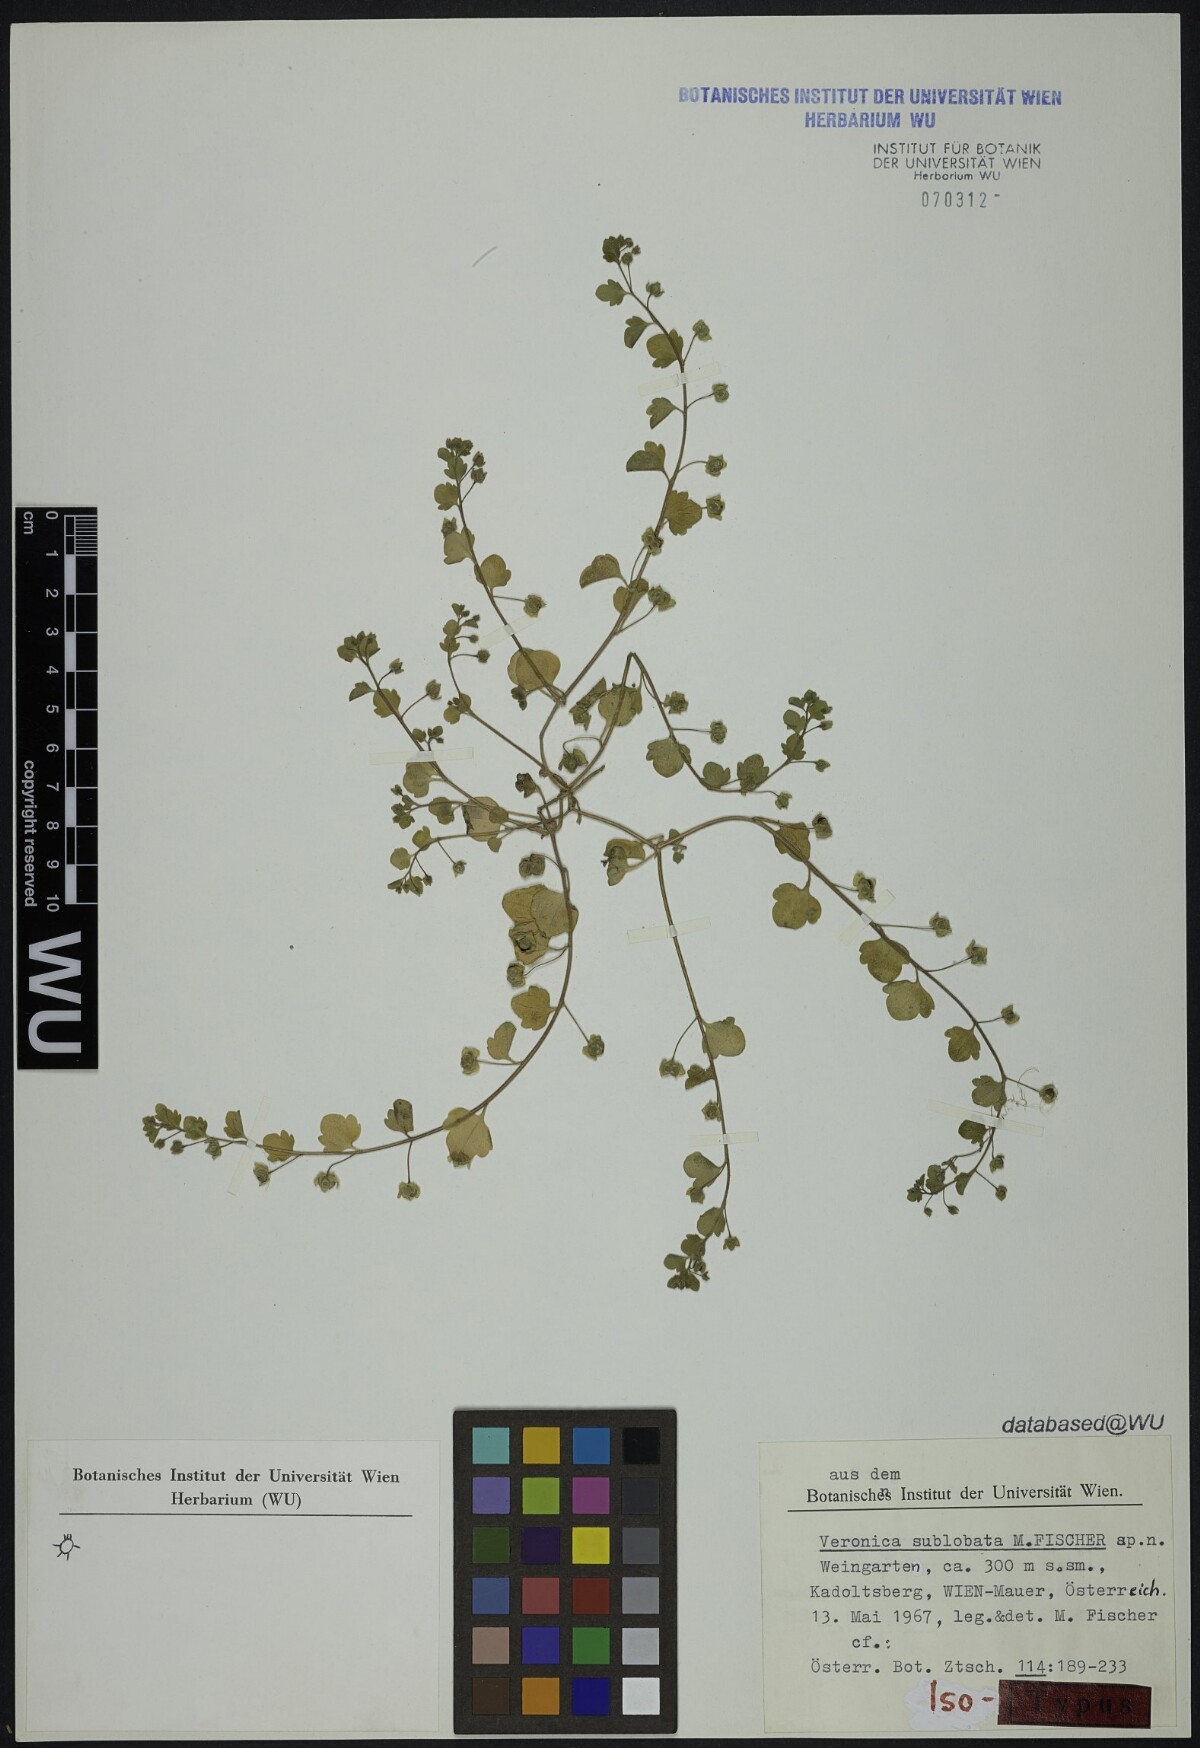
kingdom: Plantae
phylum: Tracheophyta
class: Magnoliopsida
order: Lamiales
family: Plantaginaceae
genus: Veronica
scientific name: Veronica sublobata
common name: False ivy-leaved speedwell
